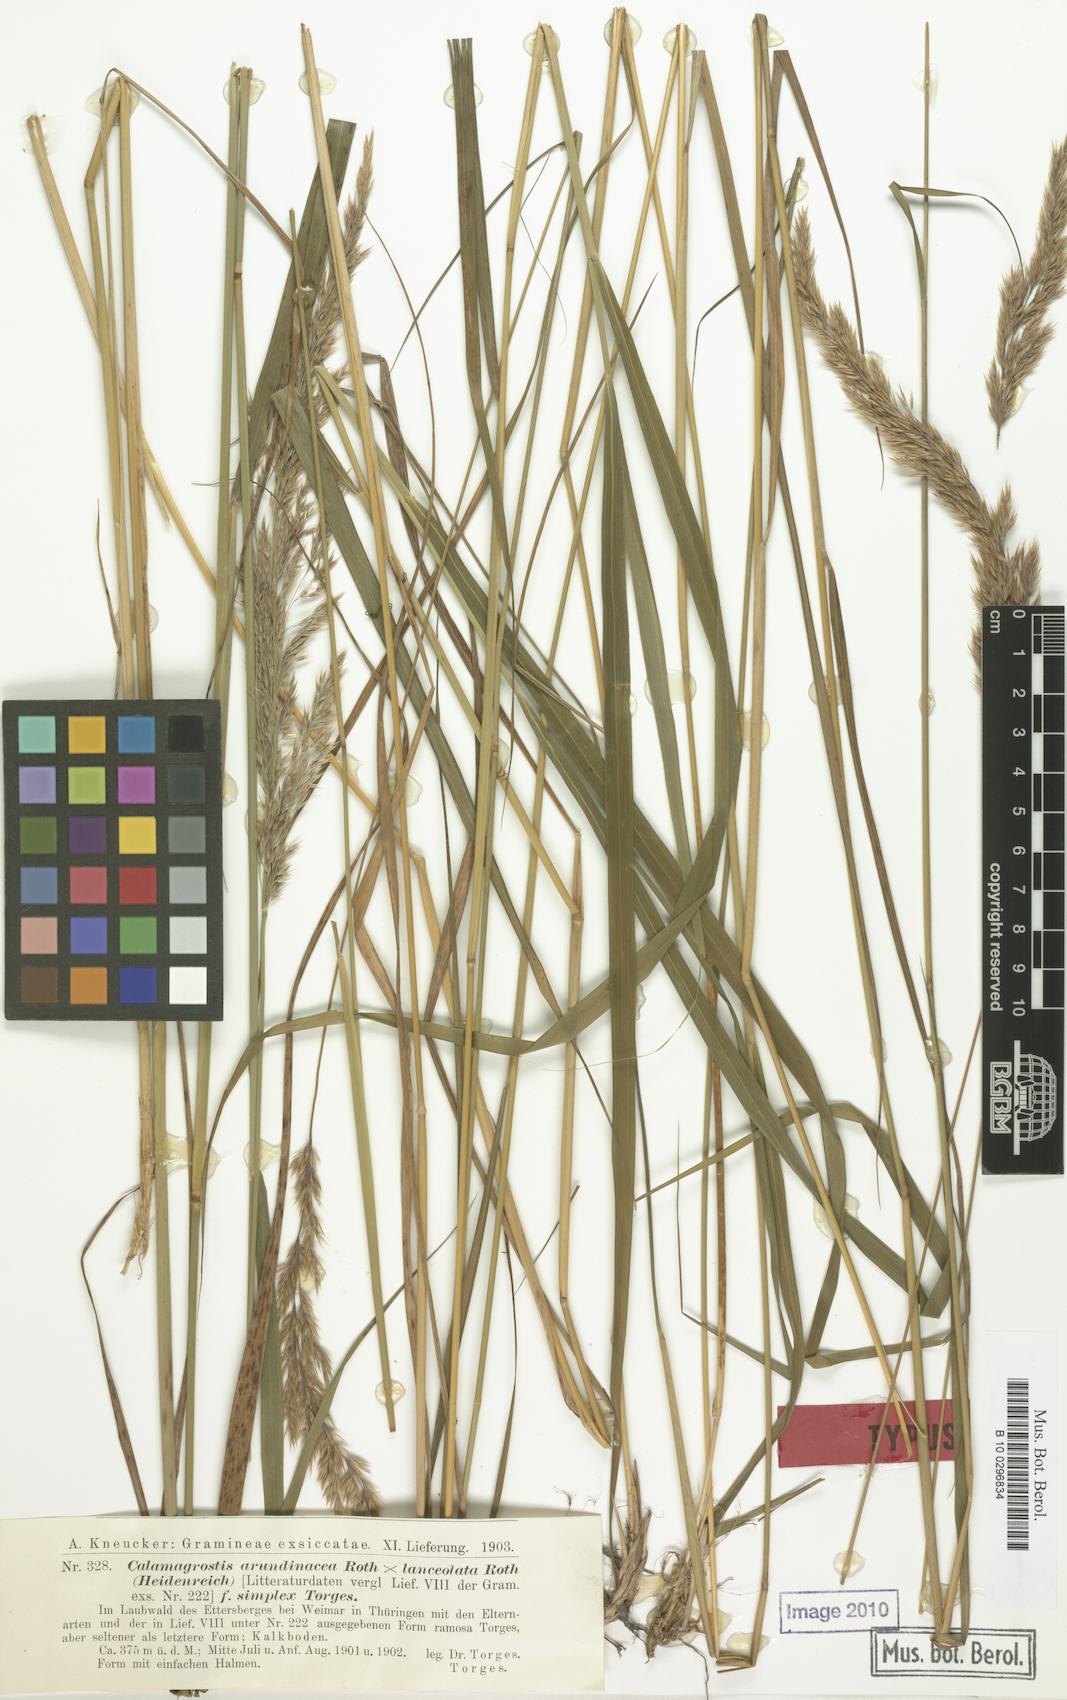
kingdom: Plantae
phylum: Tracheophyta
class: Liliopsida
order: Poales
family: Poaceae
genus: Calamagrostis
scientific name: Calamagrostis hartmaniana
